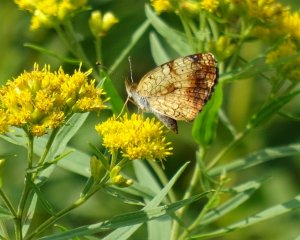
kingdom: Animalia
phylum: Arthropoda
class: Insecta
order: Lepidoptera
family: Nymphalidae
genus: Phyciodes
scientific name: Phyciodes tharos
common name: Northern Crescent
